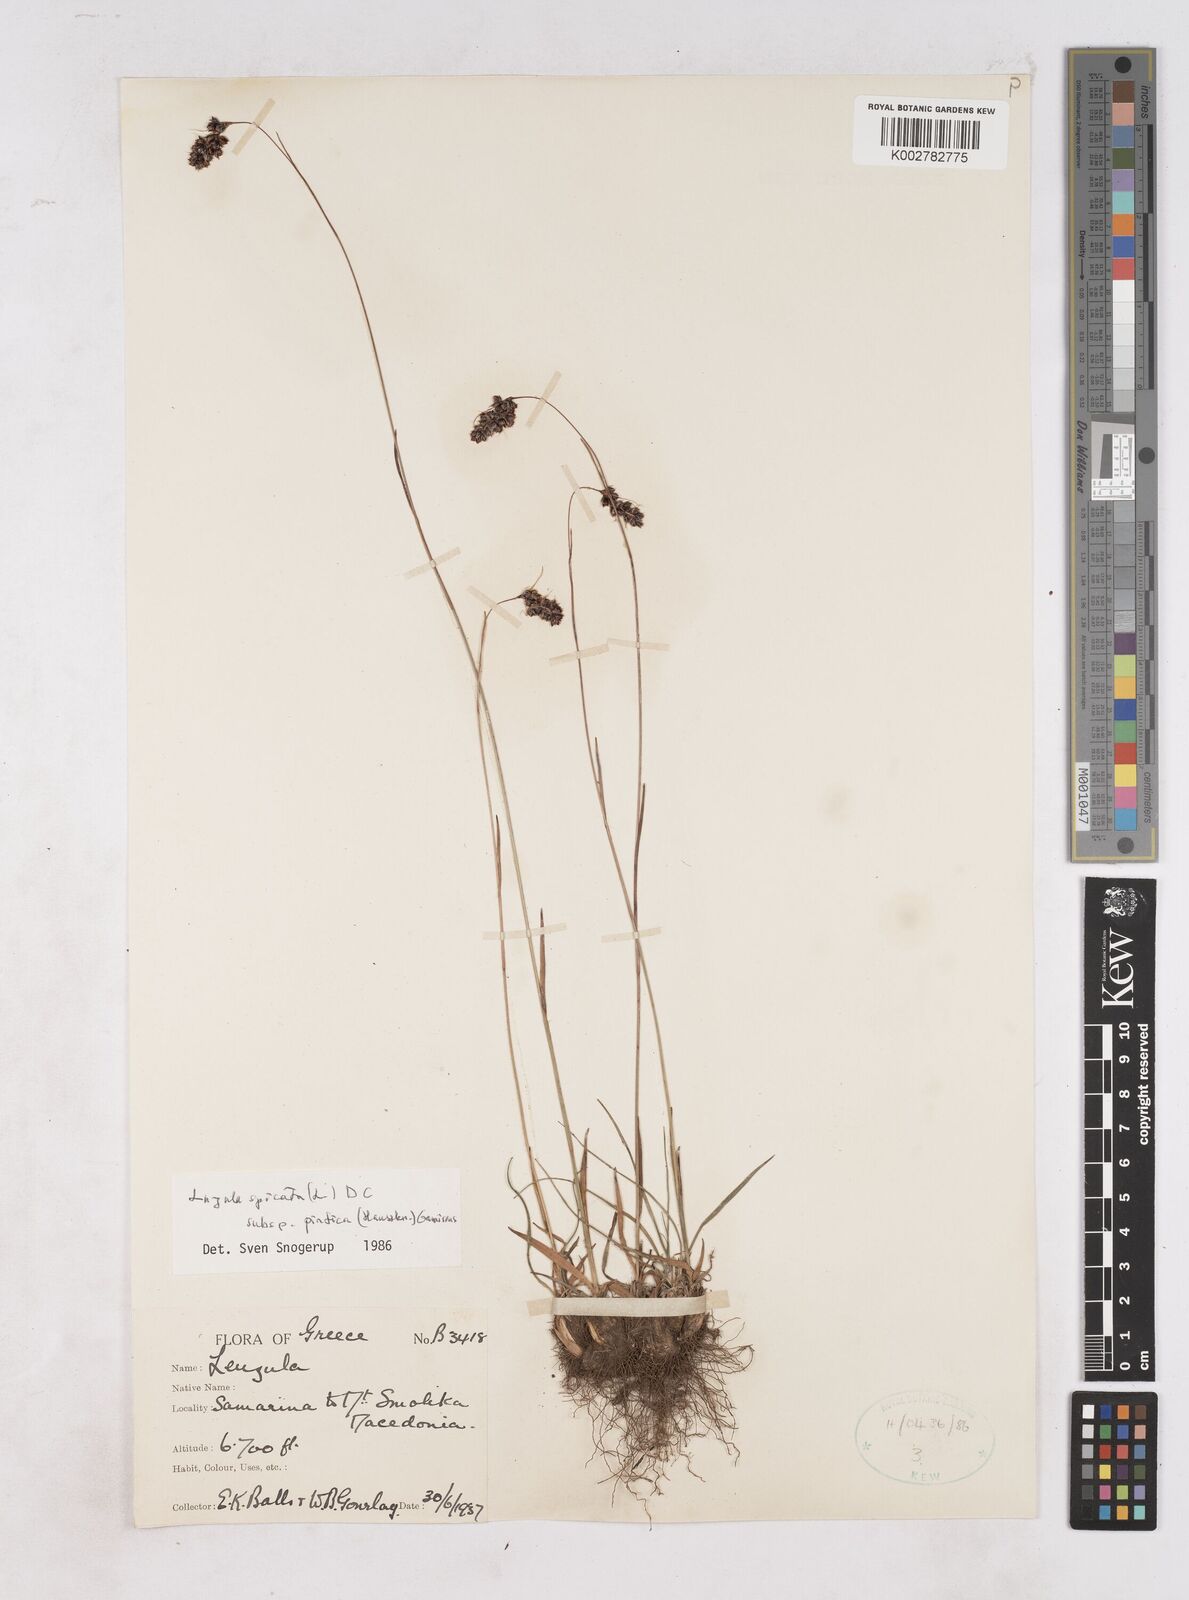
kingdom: Plantae
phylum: Tracheophyta
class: Liliopsida
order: Poales
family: Juncaceae
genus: Luzula
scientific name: Luzula pindica
